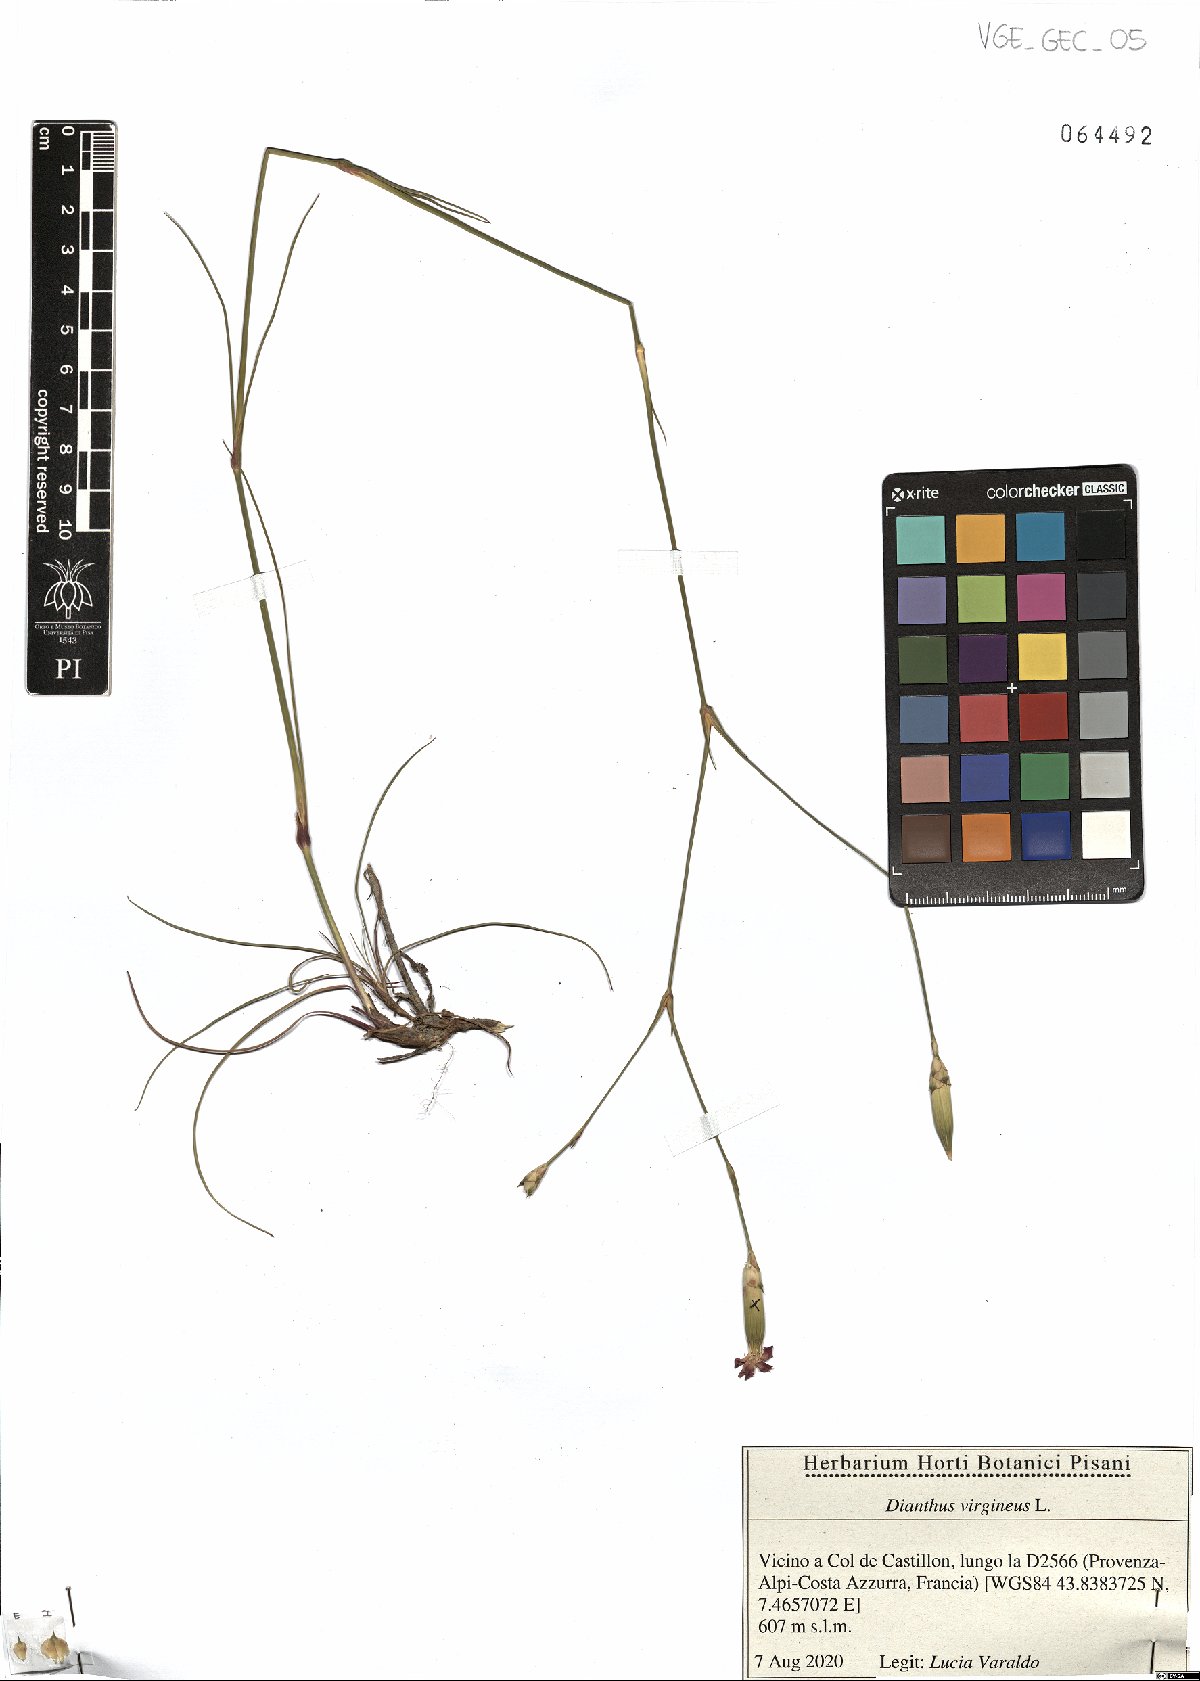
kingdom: Plantae
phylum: Tracheophyta
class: Magnoliopsida
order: Caryophyllales
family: Caryophyllaceae
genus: Dianthus
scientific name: Dianthus virgineus
